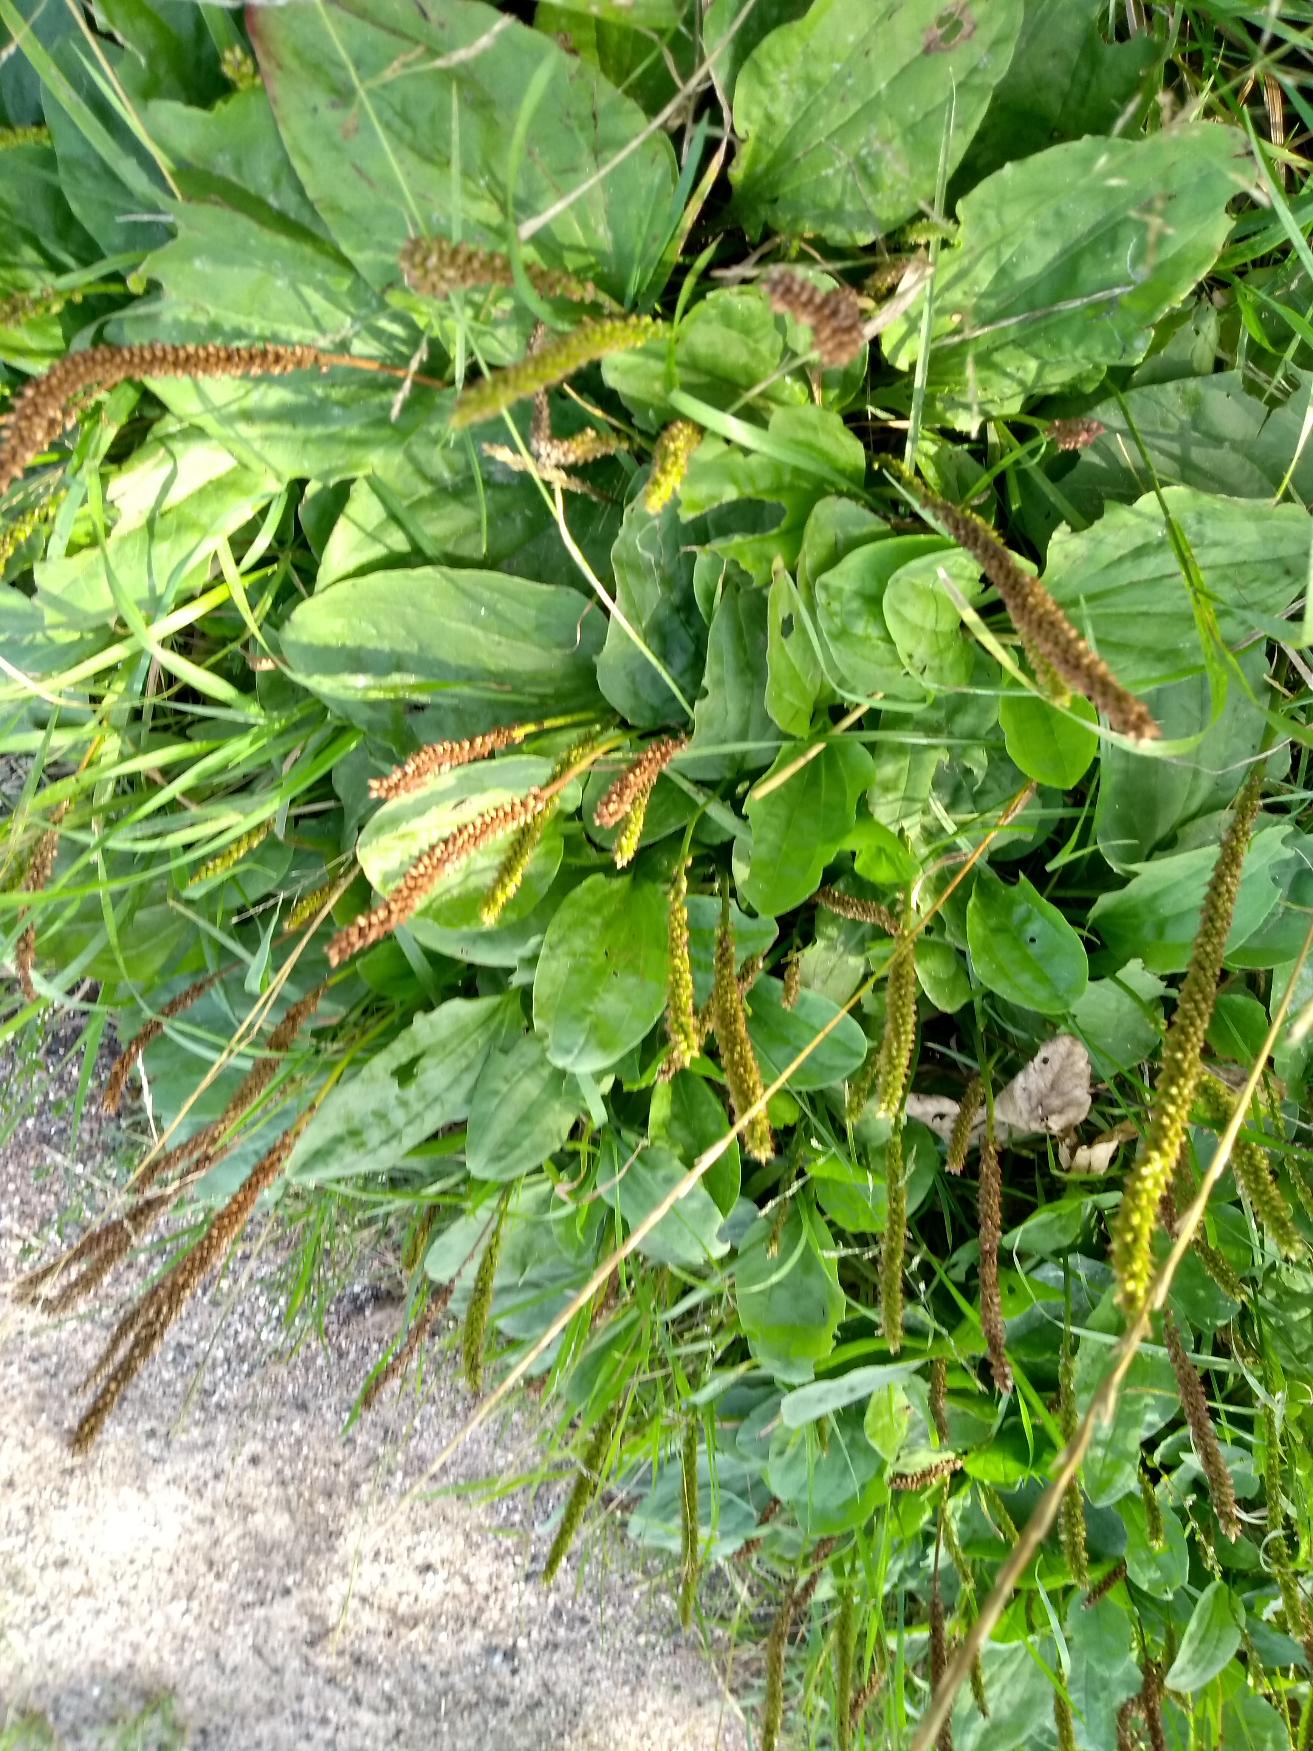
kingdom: Plantae
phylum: Tracheophyta
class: Magnoliopsida
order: Lamiales
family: Plantaginaceae
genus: Plantago
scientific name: Plantago major
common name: Glat vejbred
